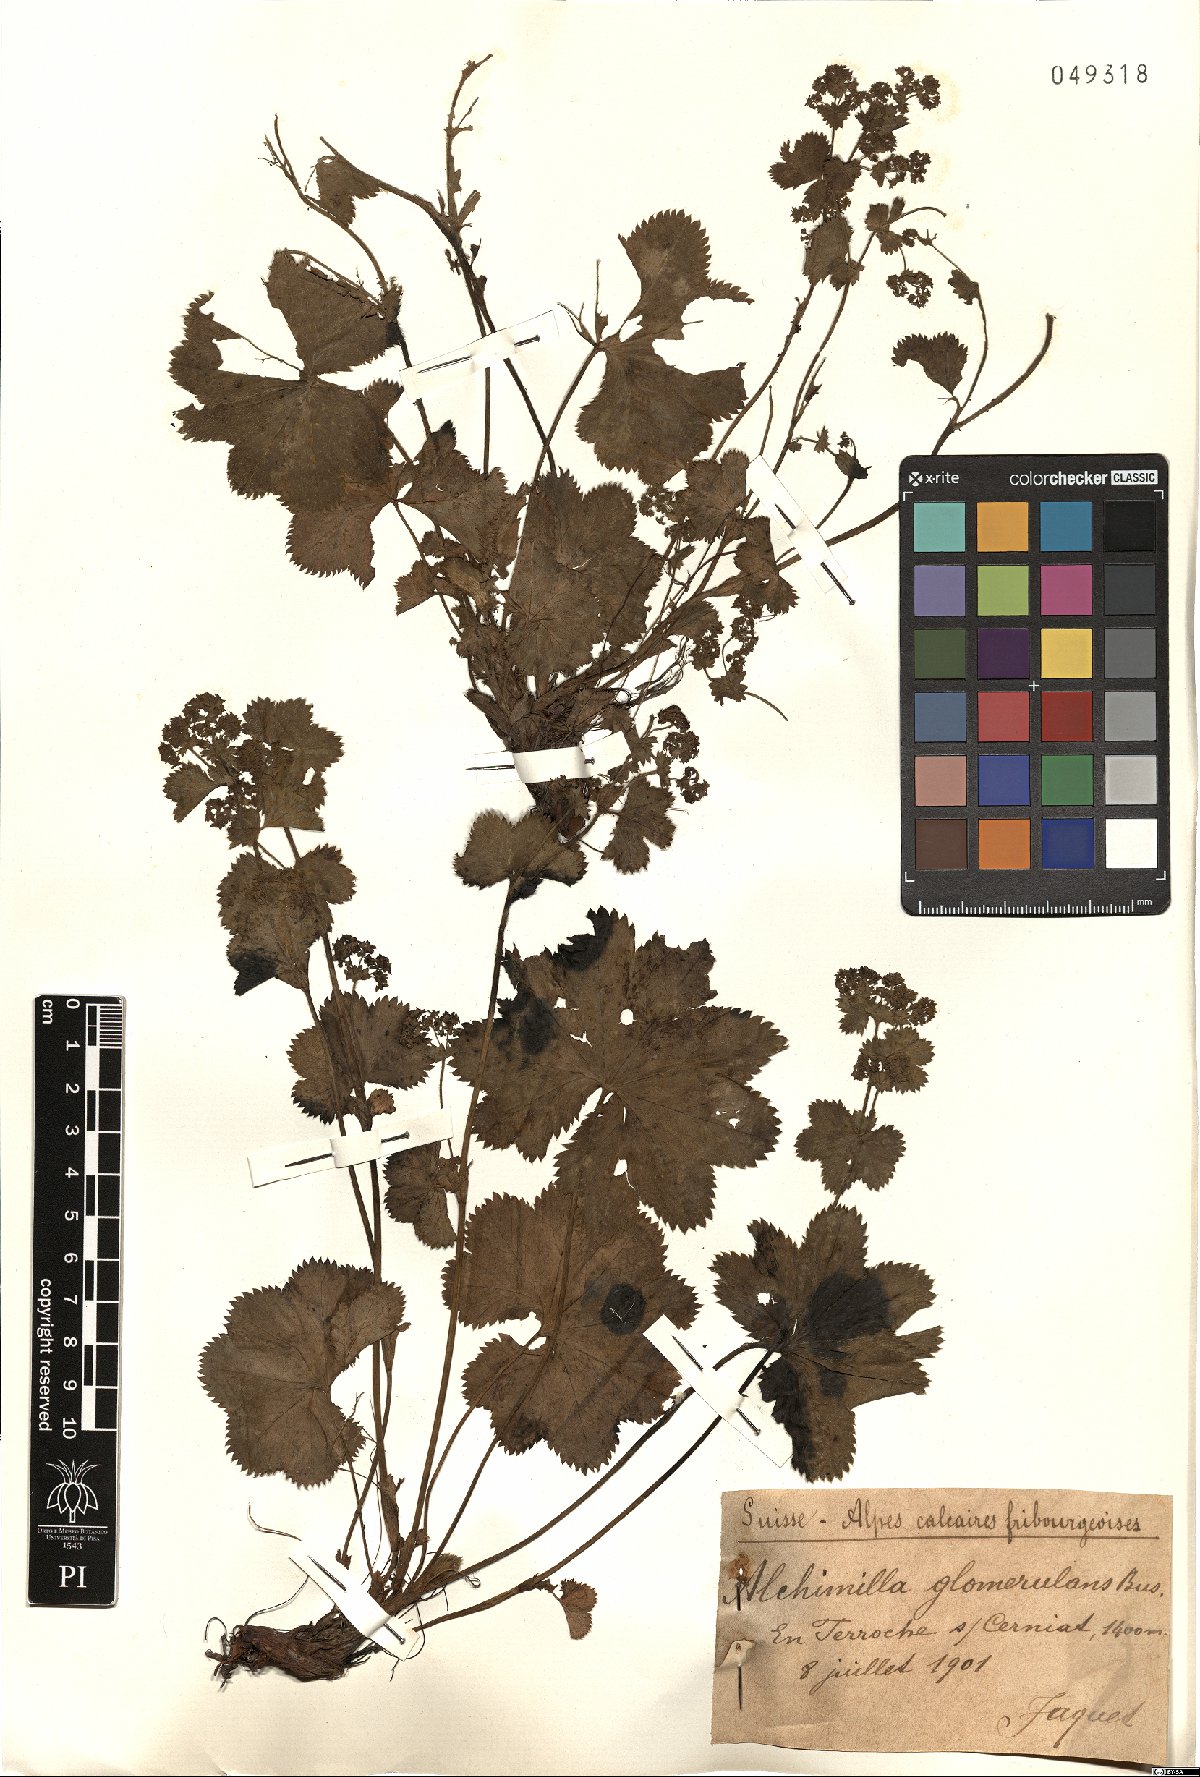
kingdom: Plantae
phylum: Tracheophyta
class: Magnoliopsida
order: Rosales
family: Rosaceae
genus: Alchemilla
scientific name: Alchemilla glomerulans
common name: Clustered lady's mantle
